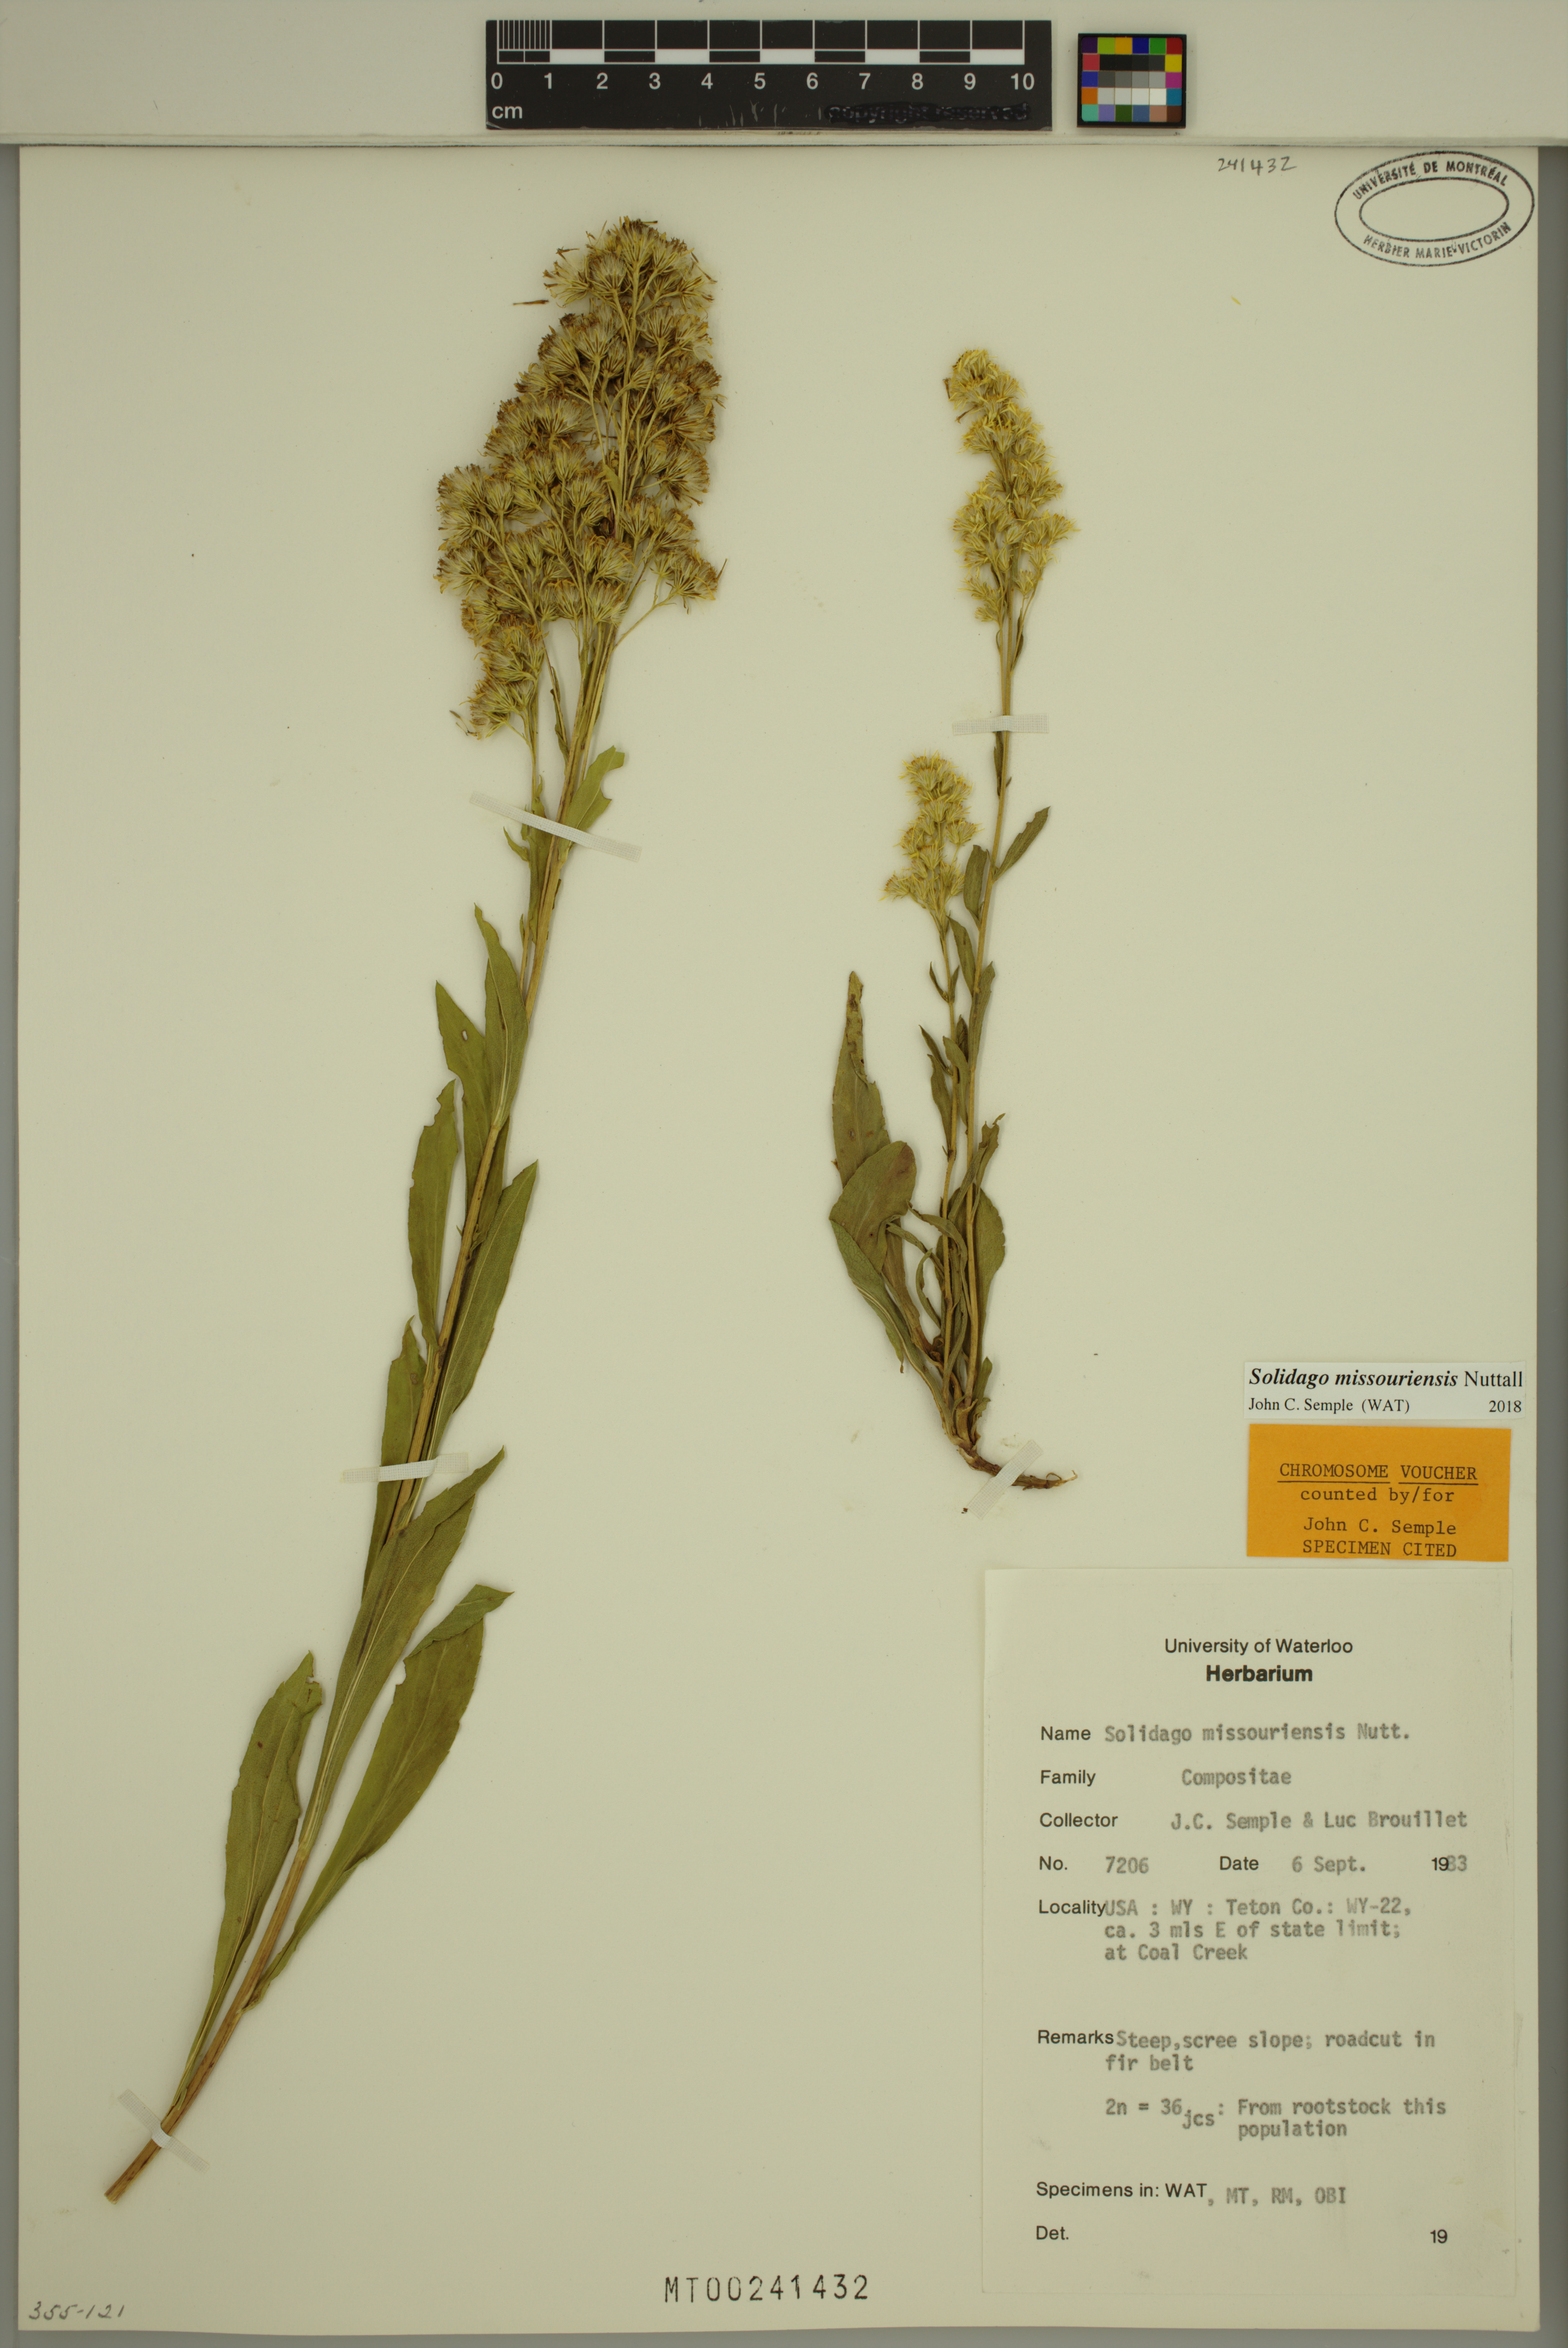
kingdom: Plantae
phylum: Tracheophyta
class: Magnoliopsida
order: Asterales
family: Asteraceae
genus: Solidago
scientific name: Solidago missouriensis
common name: Prairie goldenrod
